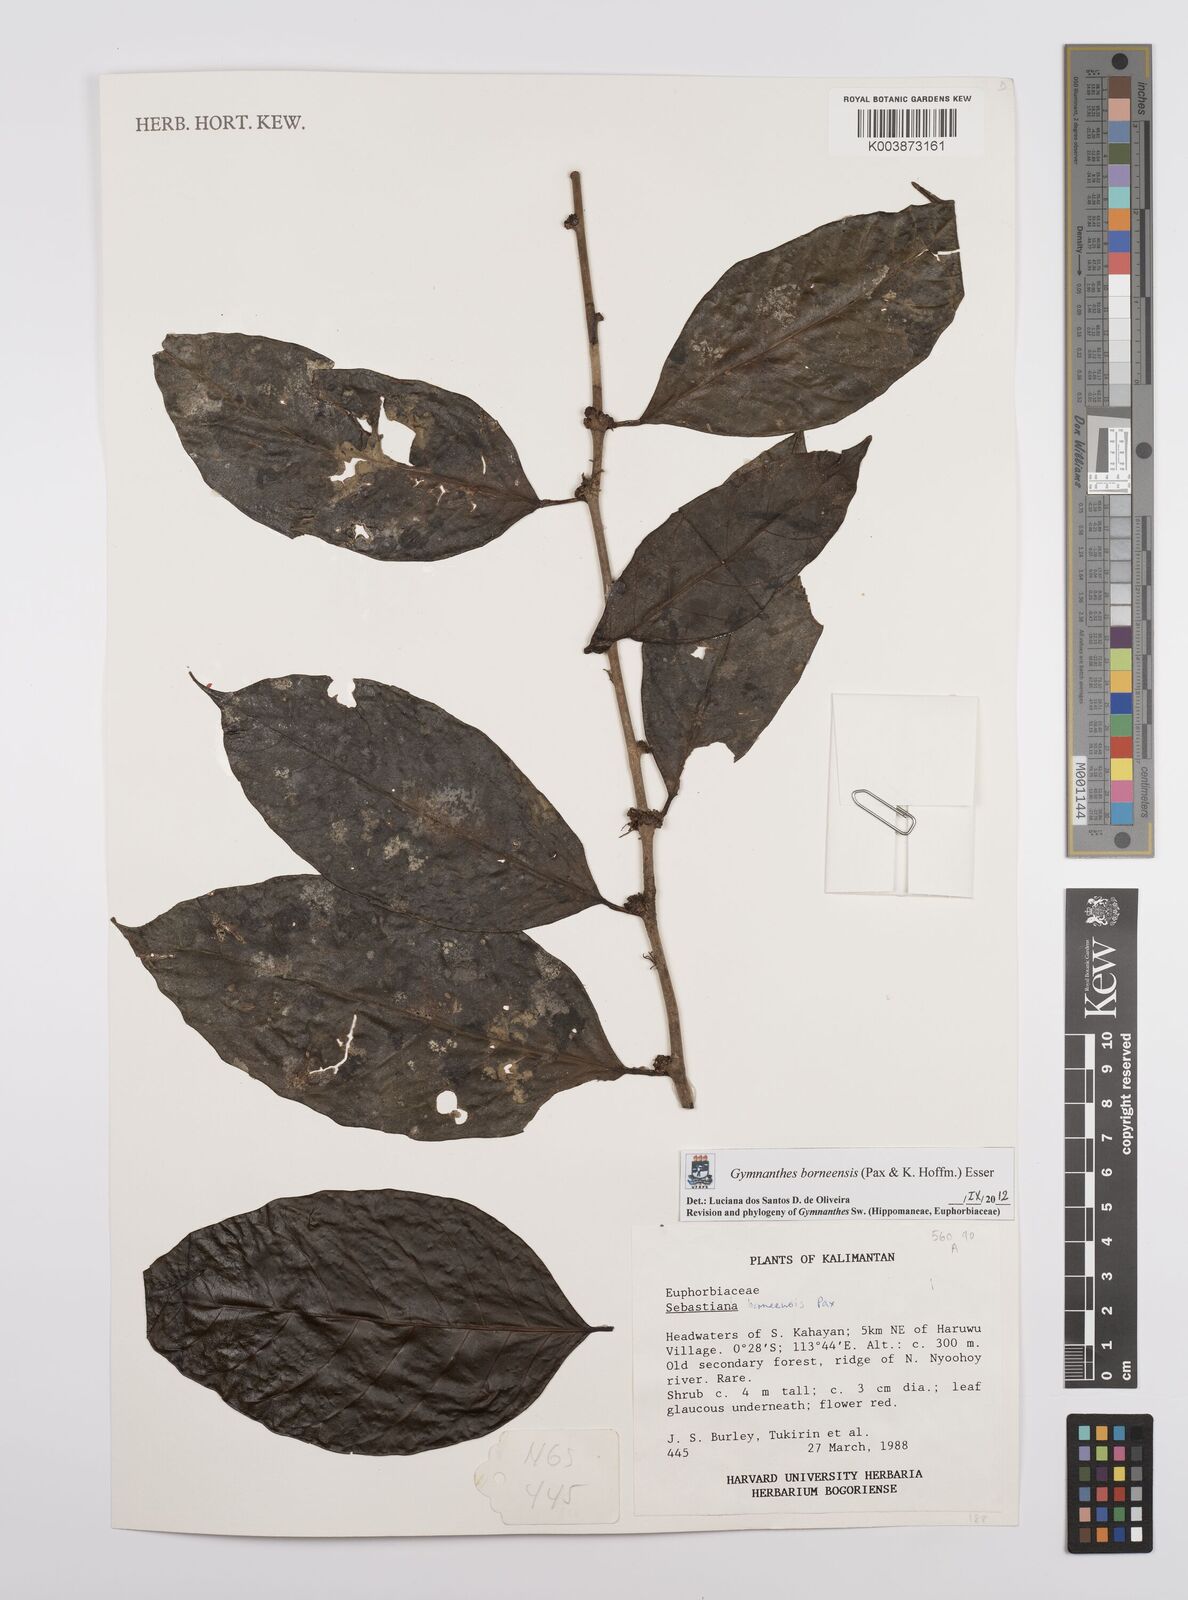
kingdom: Plantae
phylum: Tracheophyta
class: Magnoliopsida
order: Malpighiales
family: Euphorbiaceae
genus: Gymnanthes
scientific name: Gymnanthes borneensis
